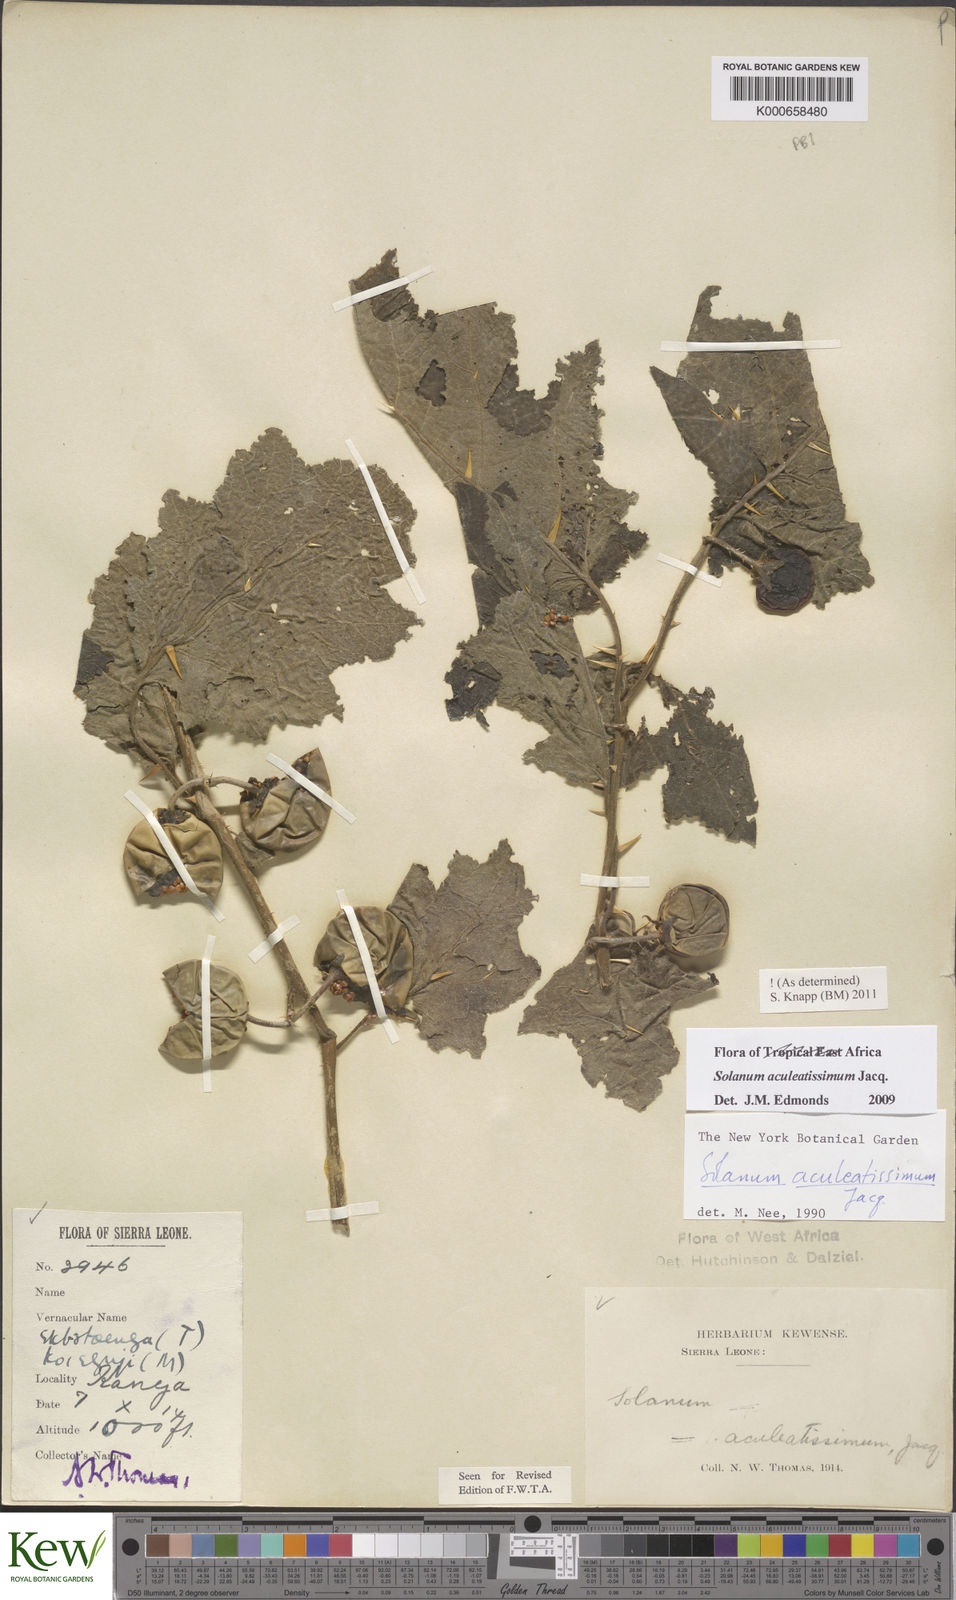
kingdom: Plantae
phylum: Tracheophyta
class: Magnoliopsida
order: Solanales
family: Solanaceae
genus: Solanum
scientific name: Solanum aculeatissimum
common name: Dutch eggplant
